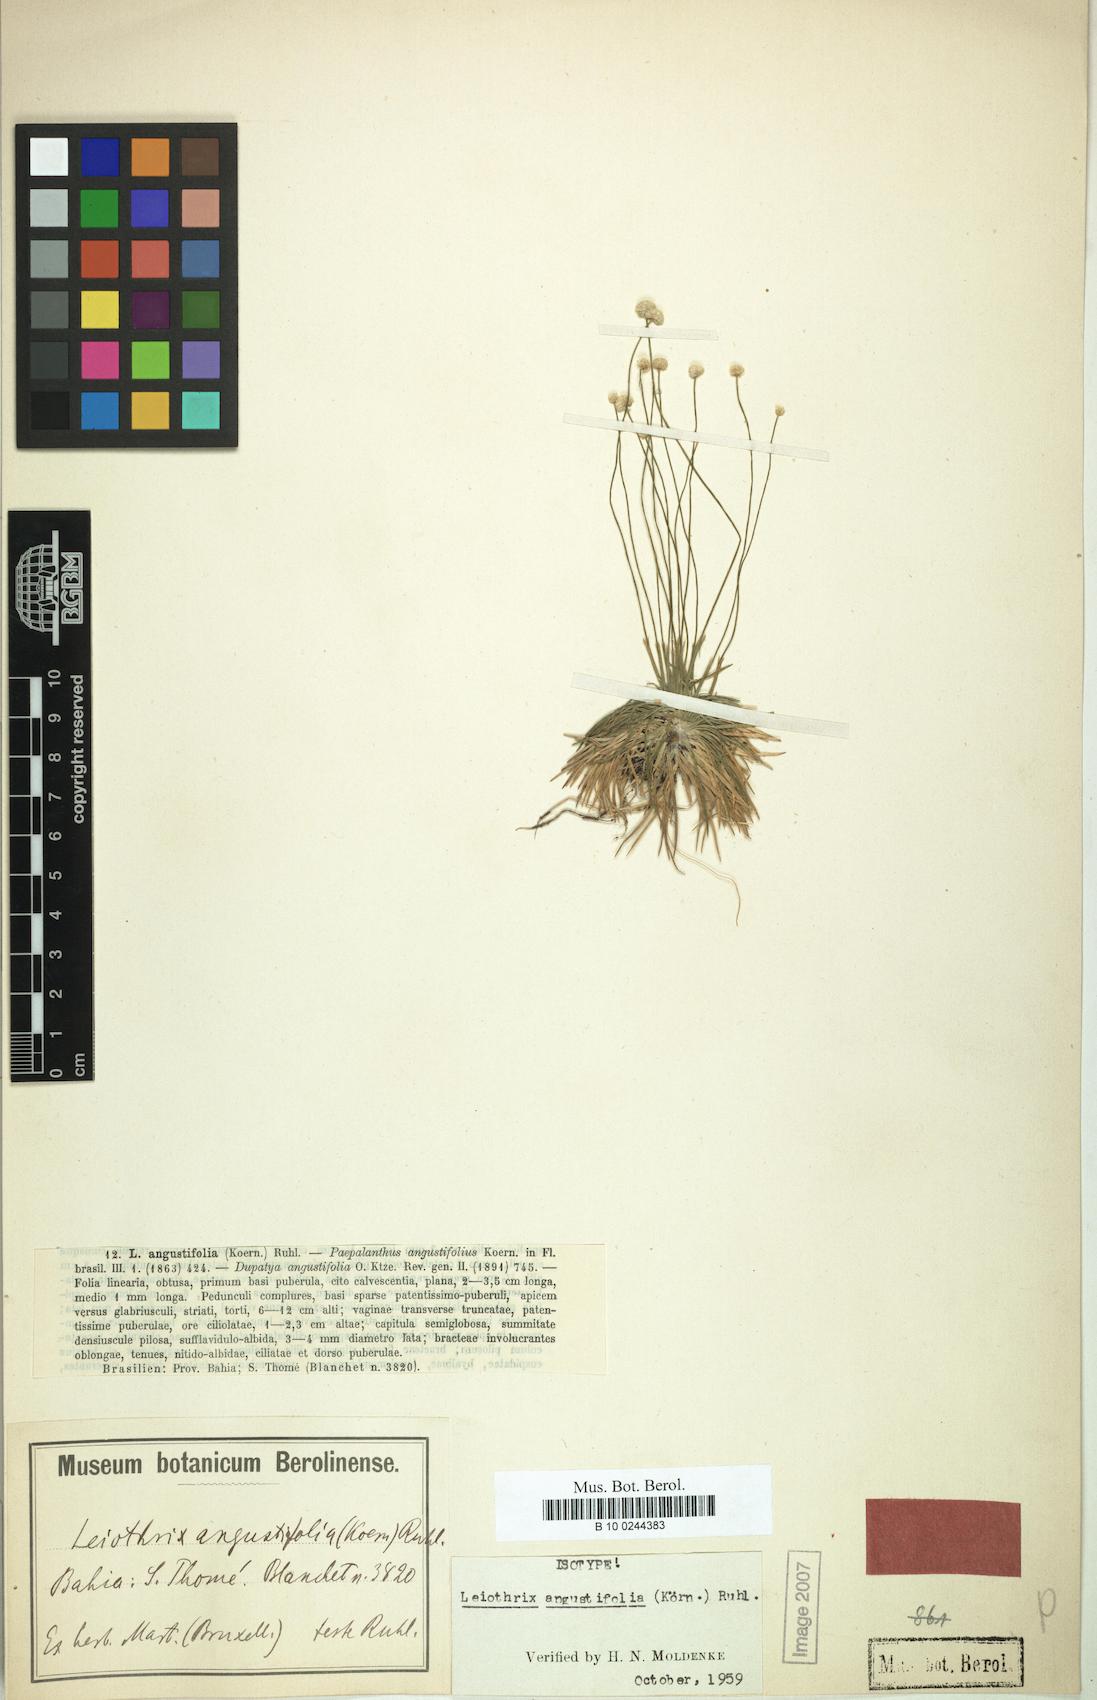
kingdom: Plantae
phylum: Tracheophyta
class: Liliopsida
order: Poales
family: Eriocaulaceae
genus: Leiothrix
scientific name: Leiothrix angustifolia
